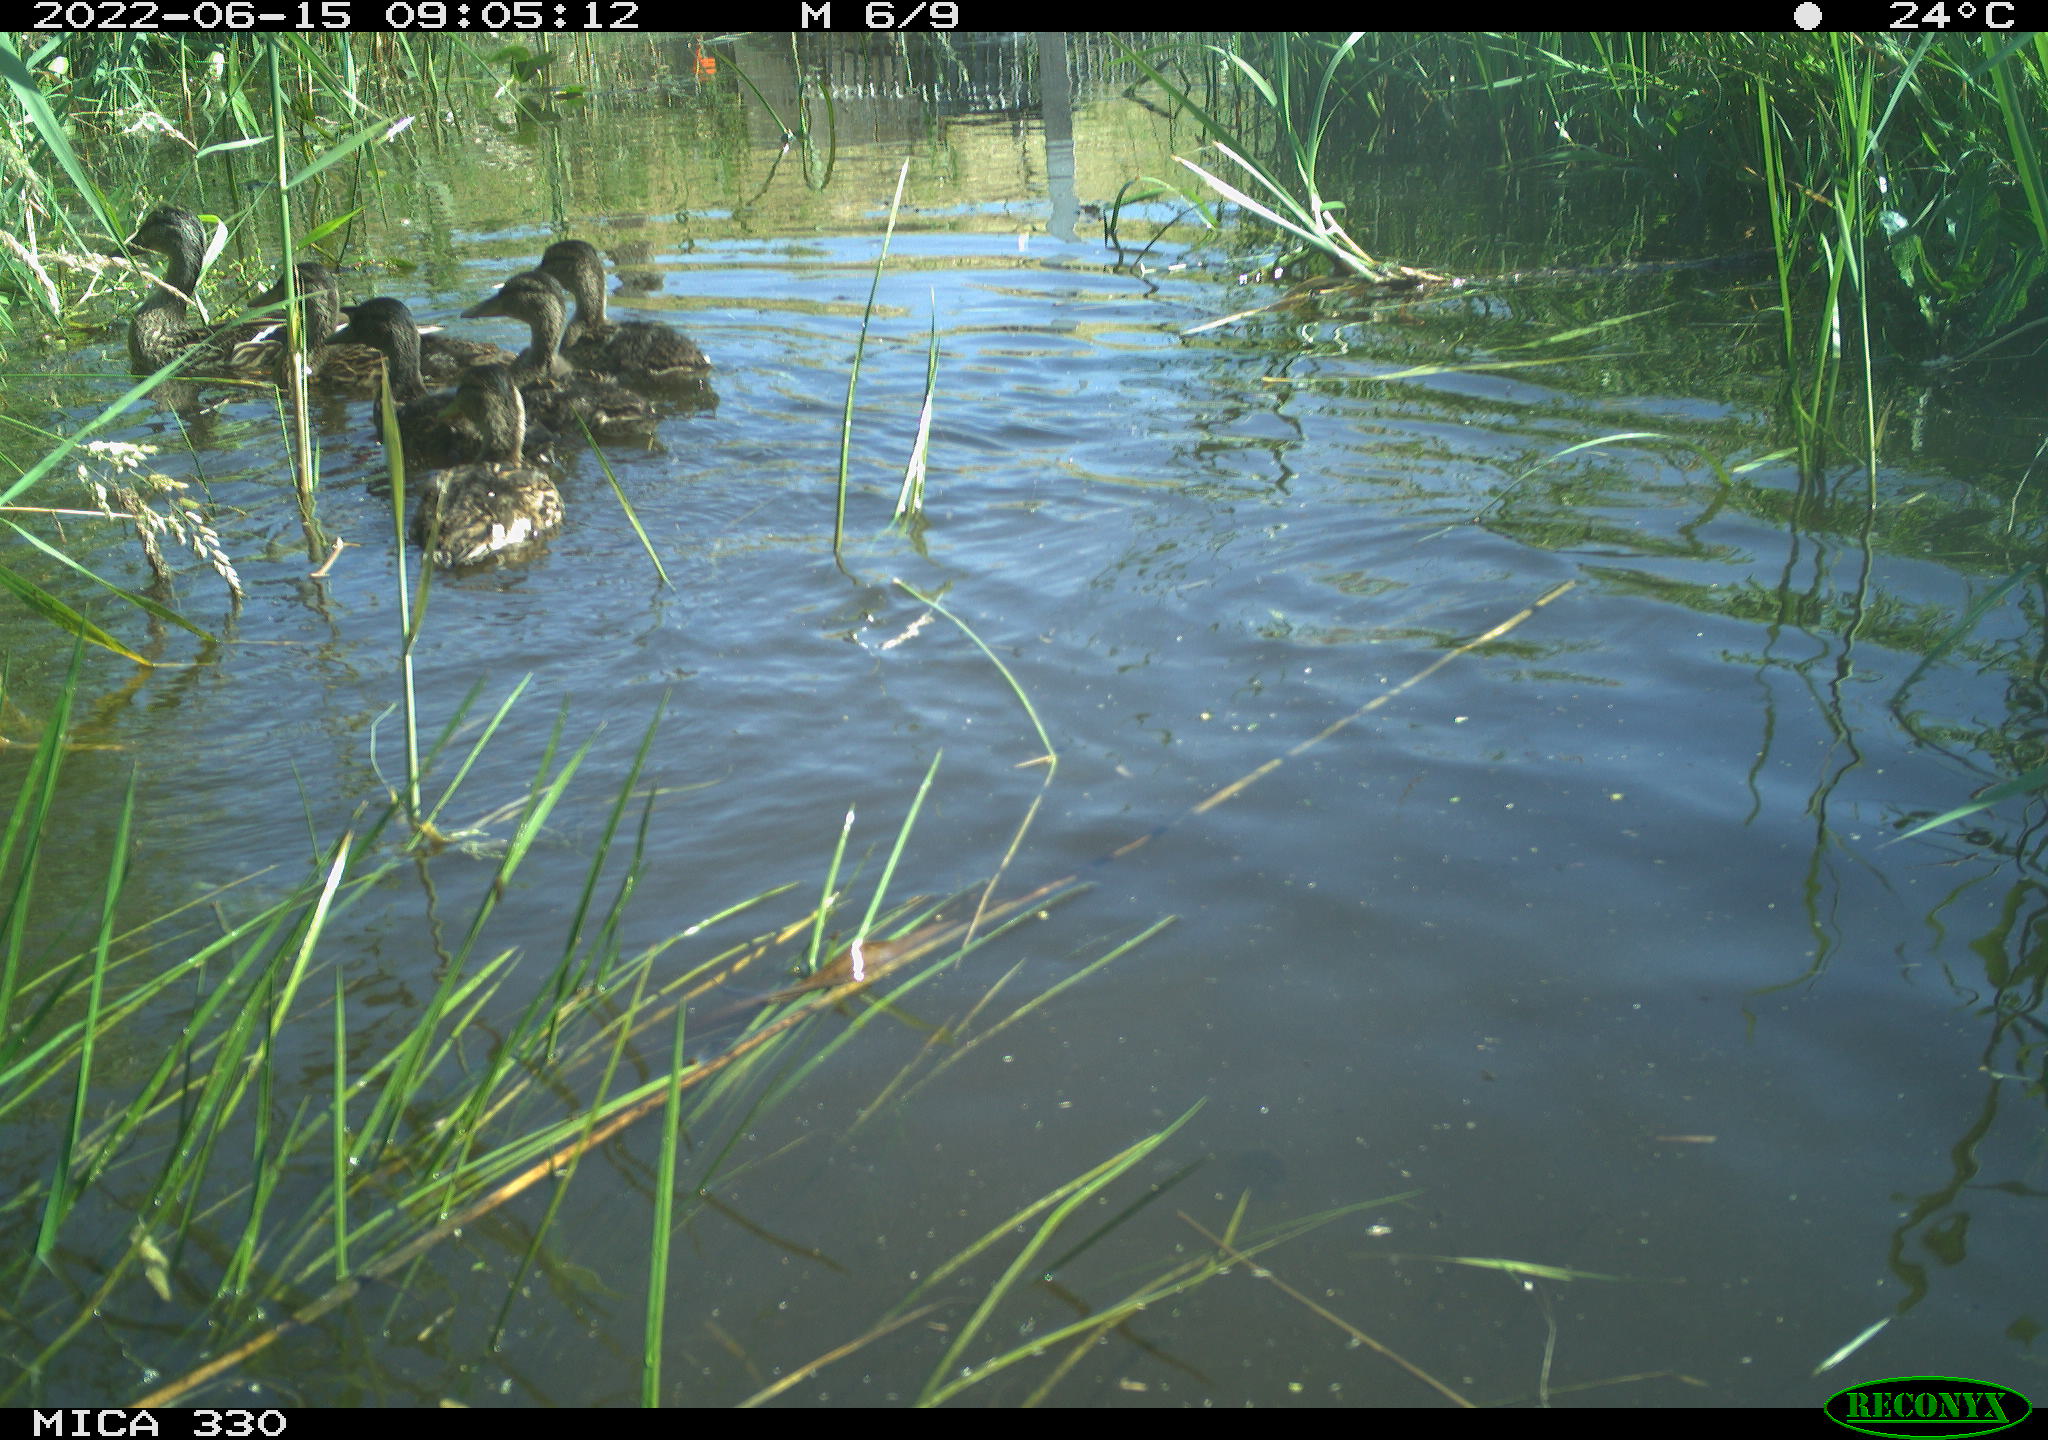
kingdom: Animalia
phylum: Chordata
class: Aves
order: Anseriformes
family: Anatidae
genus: Mareca
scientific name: Mareca strepera
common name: Gadwall
